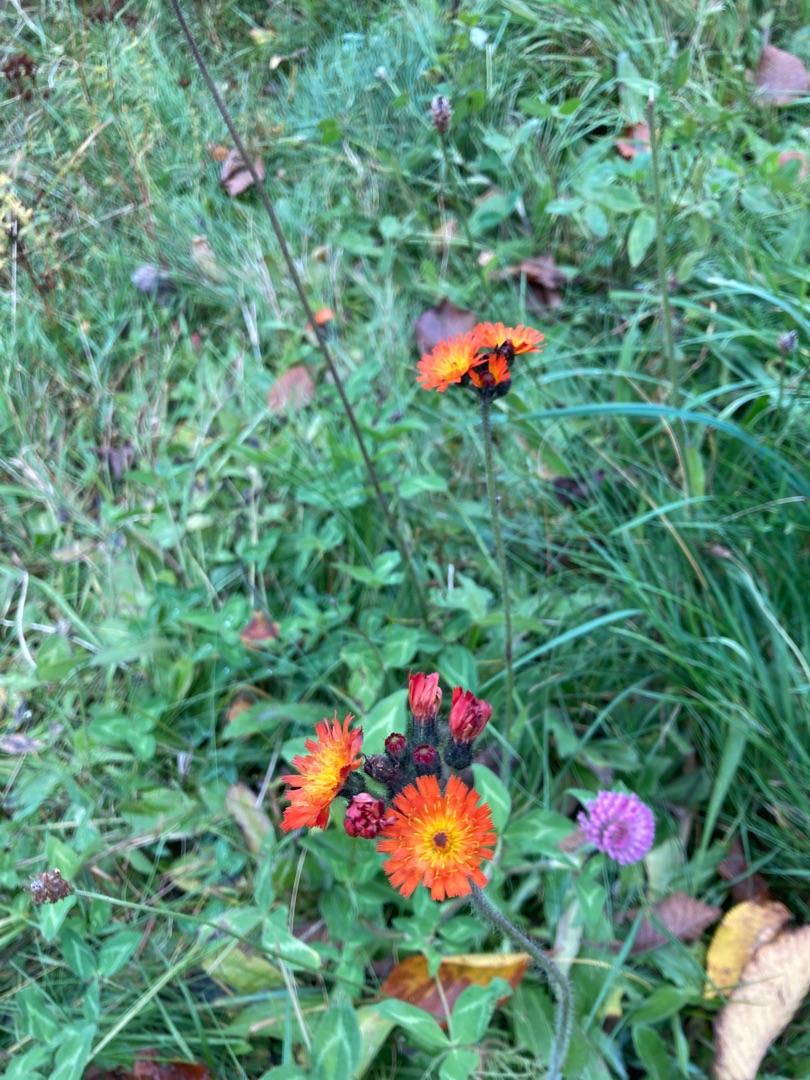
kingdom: Plantae
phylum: Tracheophyta
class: Magnoliopsida
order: Asterales
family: Asteraceae
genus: Pilosella
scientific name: Pilosella aurantiaca
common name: Pomerans-høgeurt
